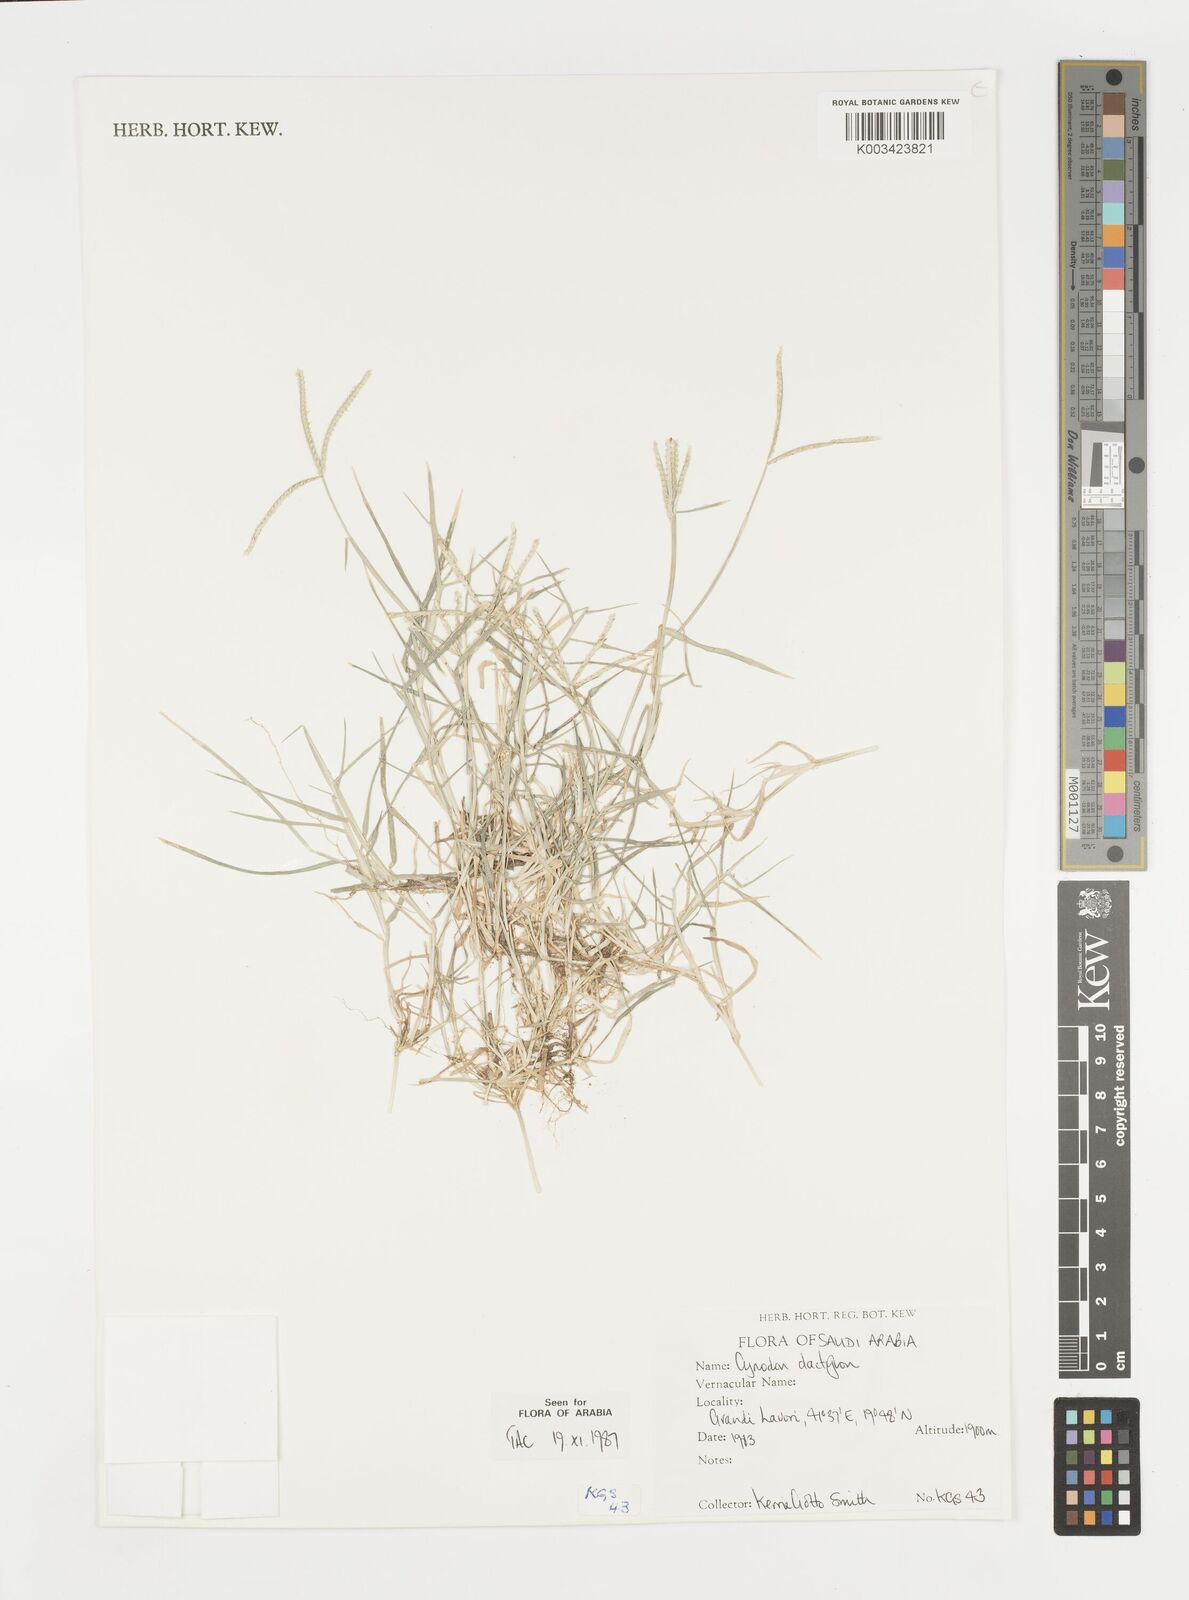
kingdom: Plantae
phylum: Tracheophyta
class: Liliopsida
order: Poales
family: Poaceae
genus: Cynodon
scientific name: Cynodon dactylon
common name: Bermuda grass
